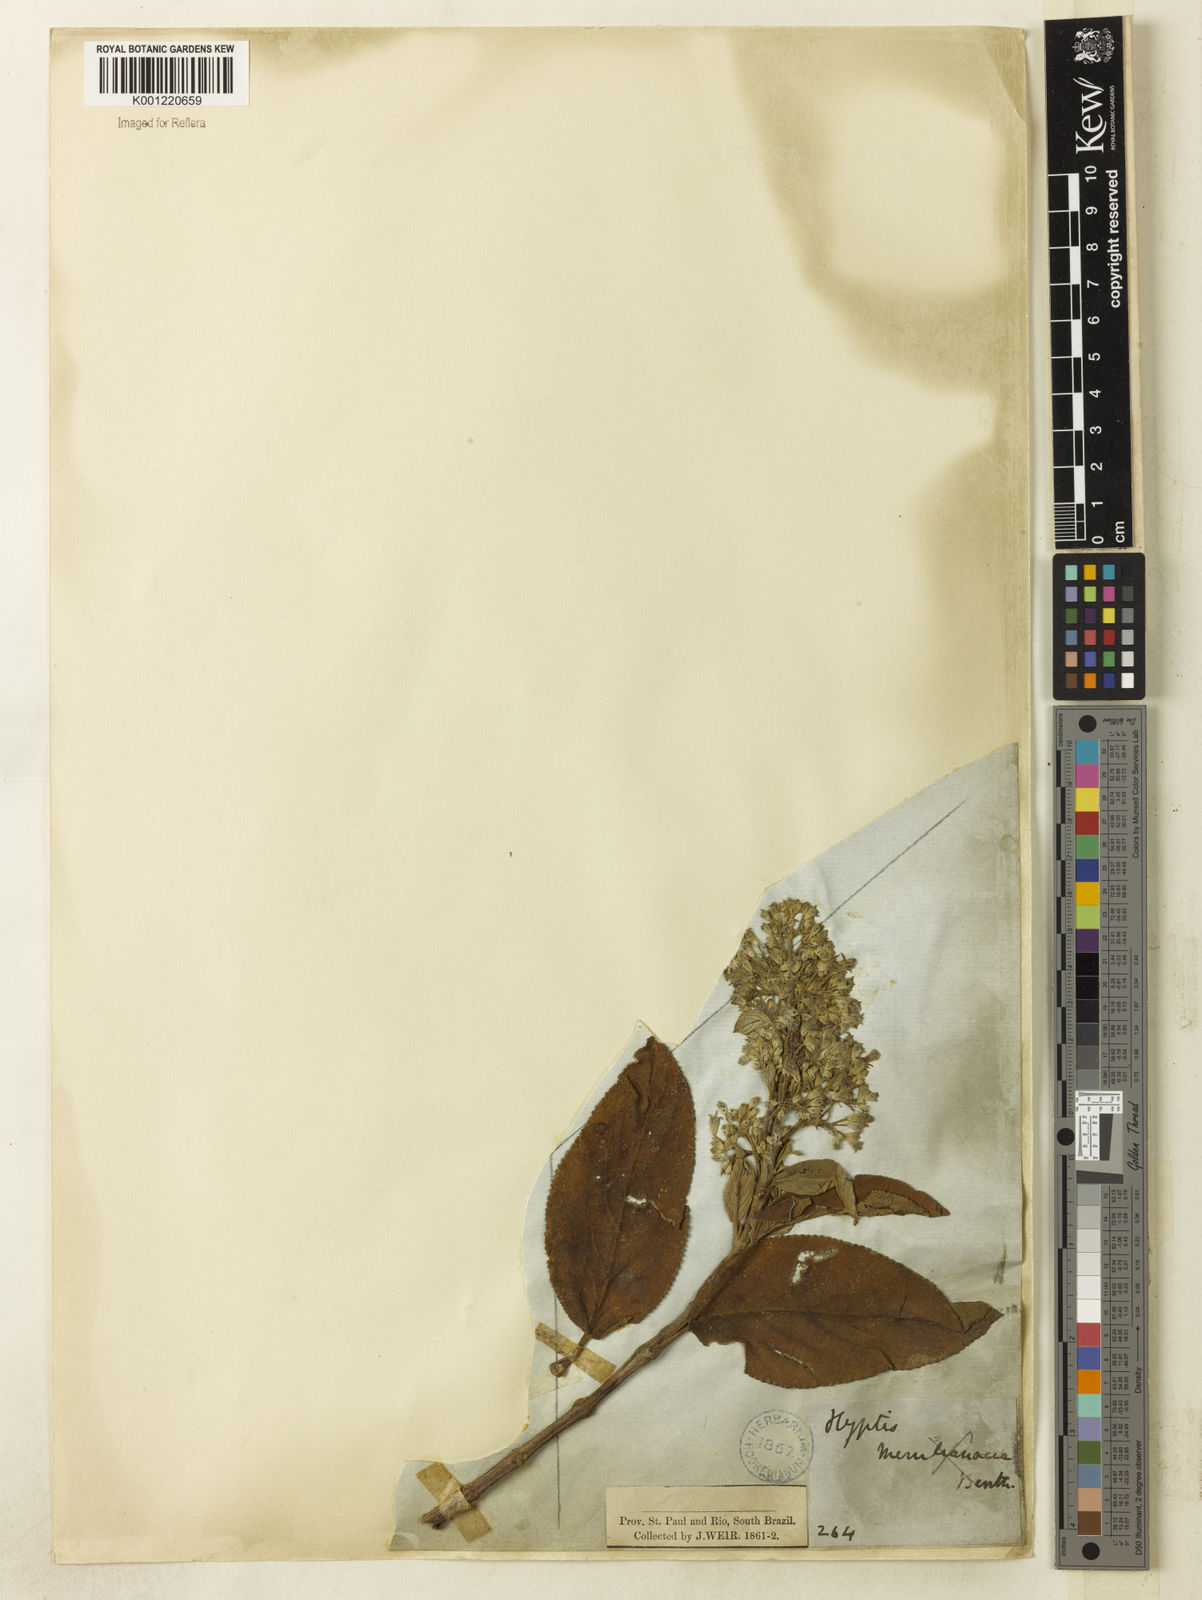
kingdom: Plantae
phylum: Tracheophyta
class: Magnoliopsida
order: Lamiales
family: Lamiaceae
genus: Hyptidendron
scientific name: Hyptidendron canum
